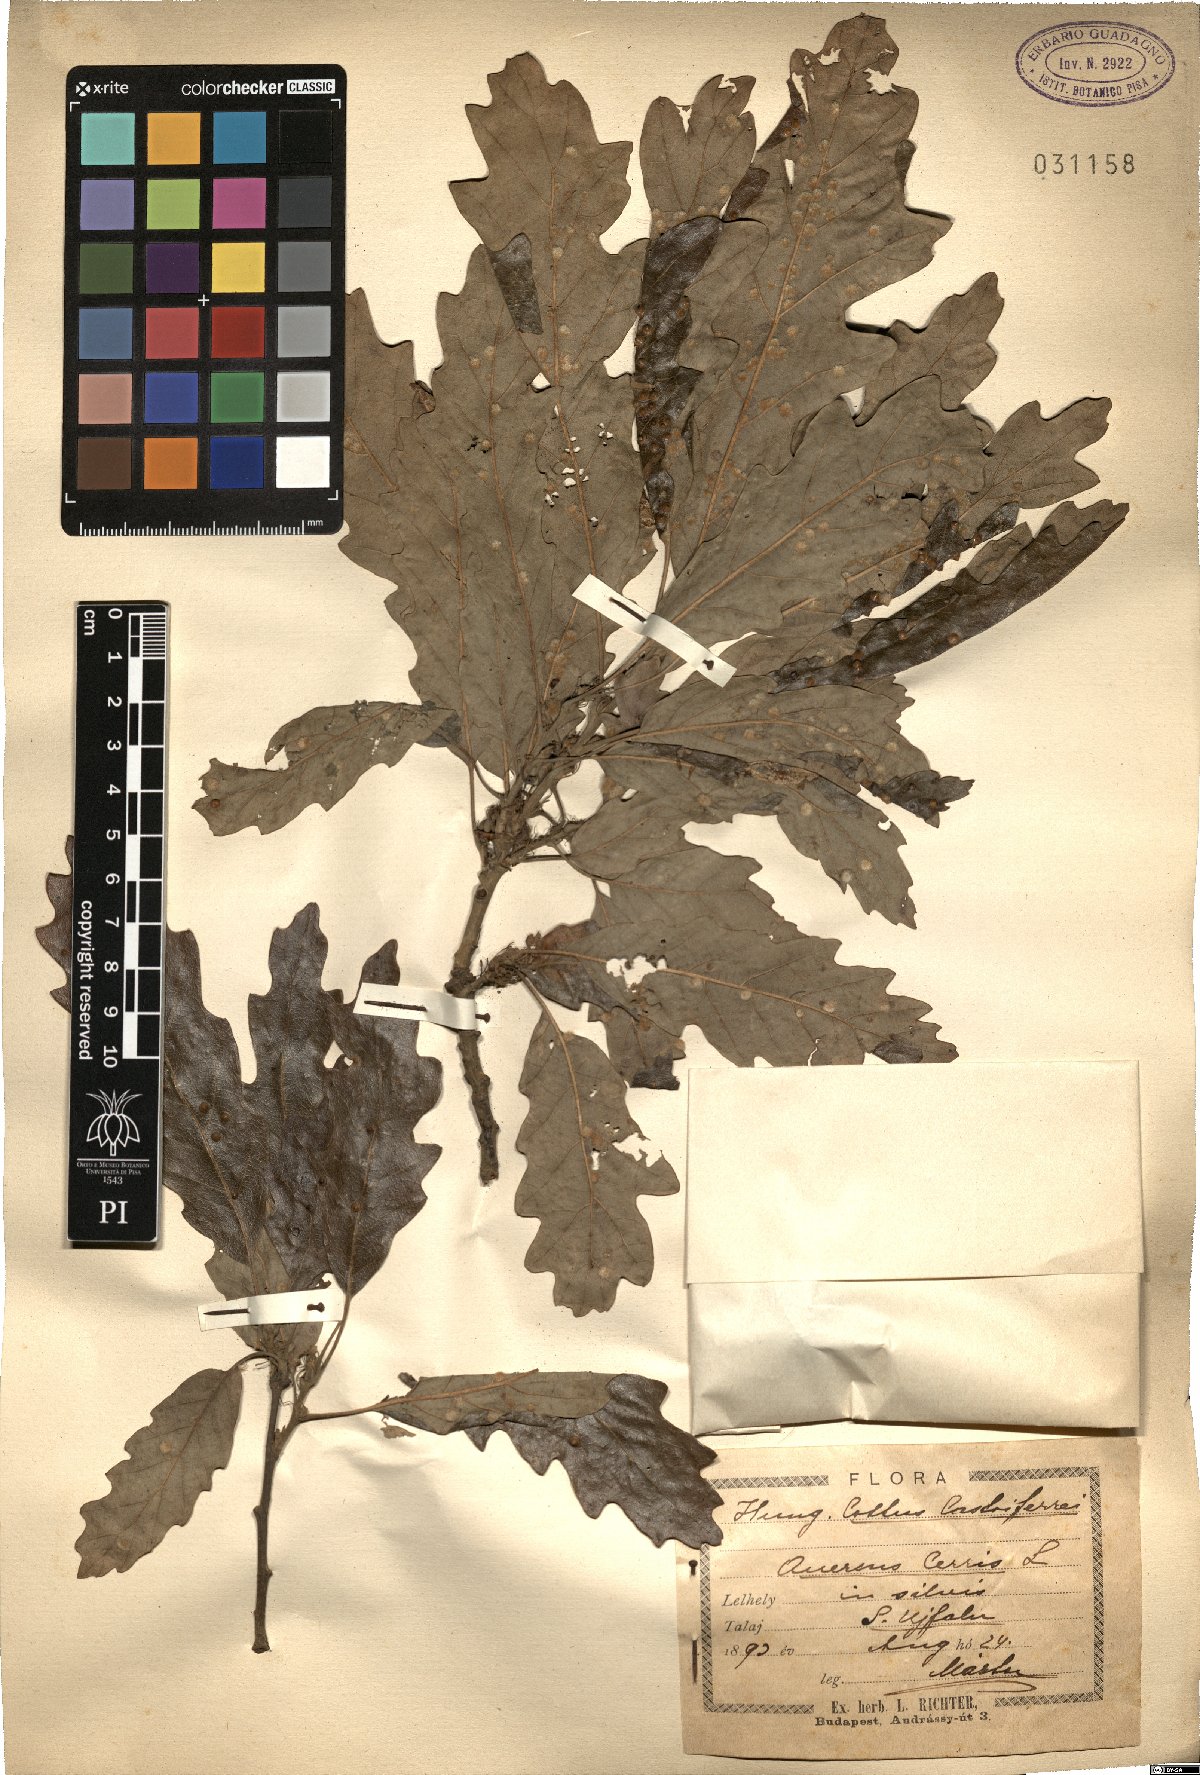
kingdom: Plantae
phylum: Tracheophyta
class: Magnoliopsida
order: Fagales
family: Fagaceae
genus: Quercus
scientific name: Quercus cerris
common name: Turkey oak
